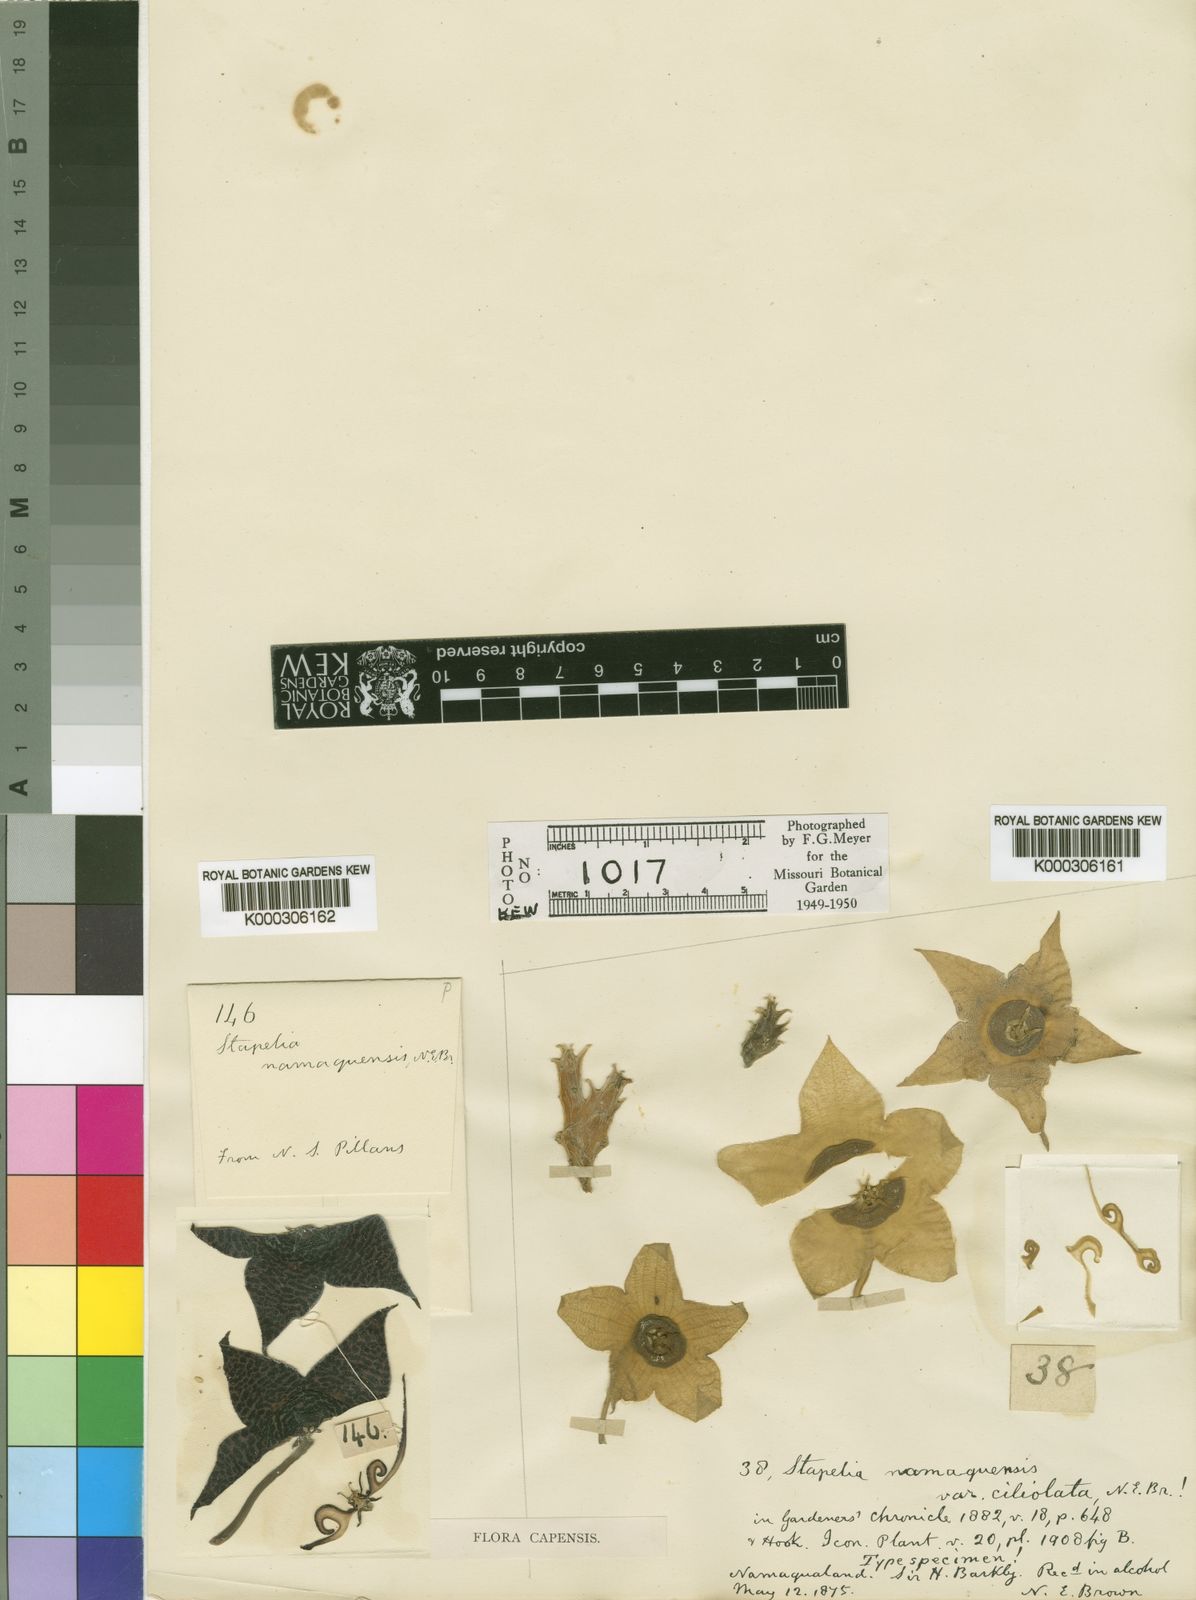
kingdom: Plantae
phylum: Tracheophyta
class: Magnoliopsida
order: Gentianales
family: Apocynaceae
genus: Ceropegia
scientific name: Ceropegia namaquana
